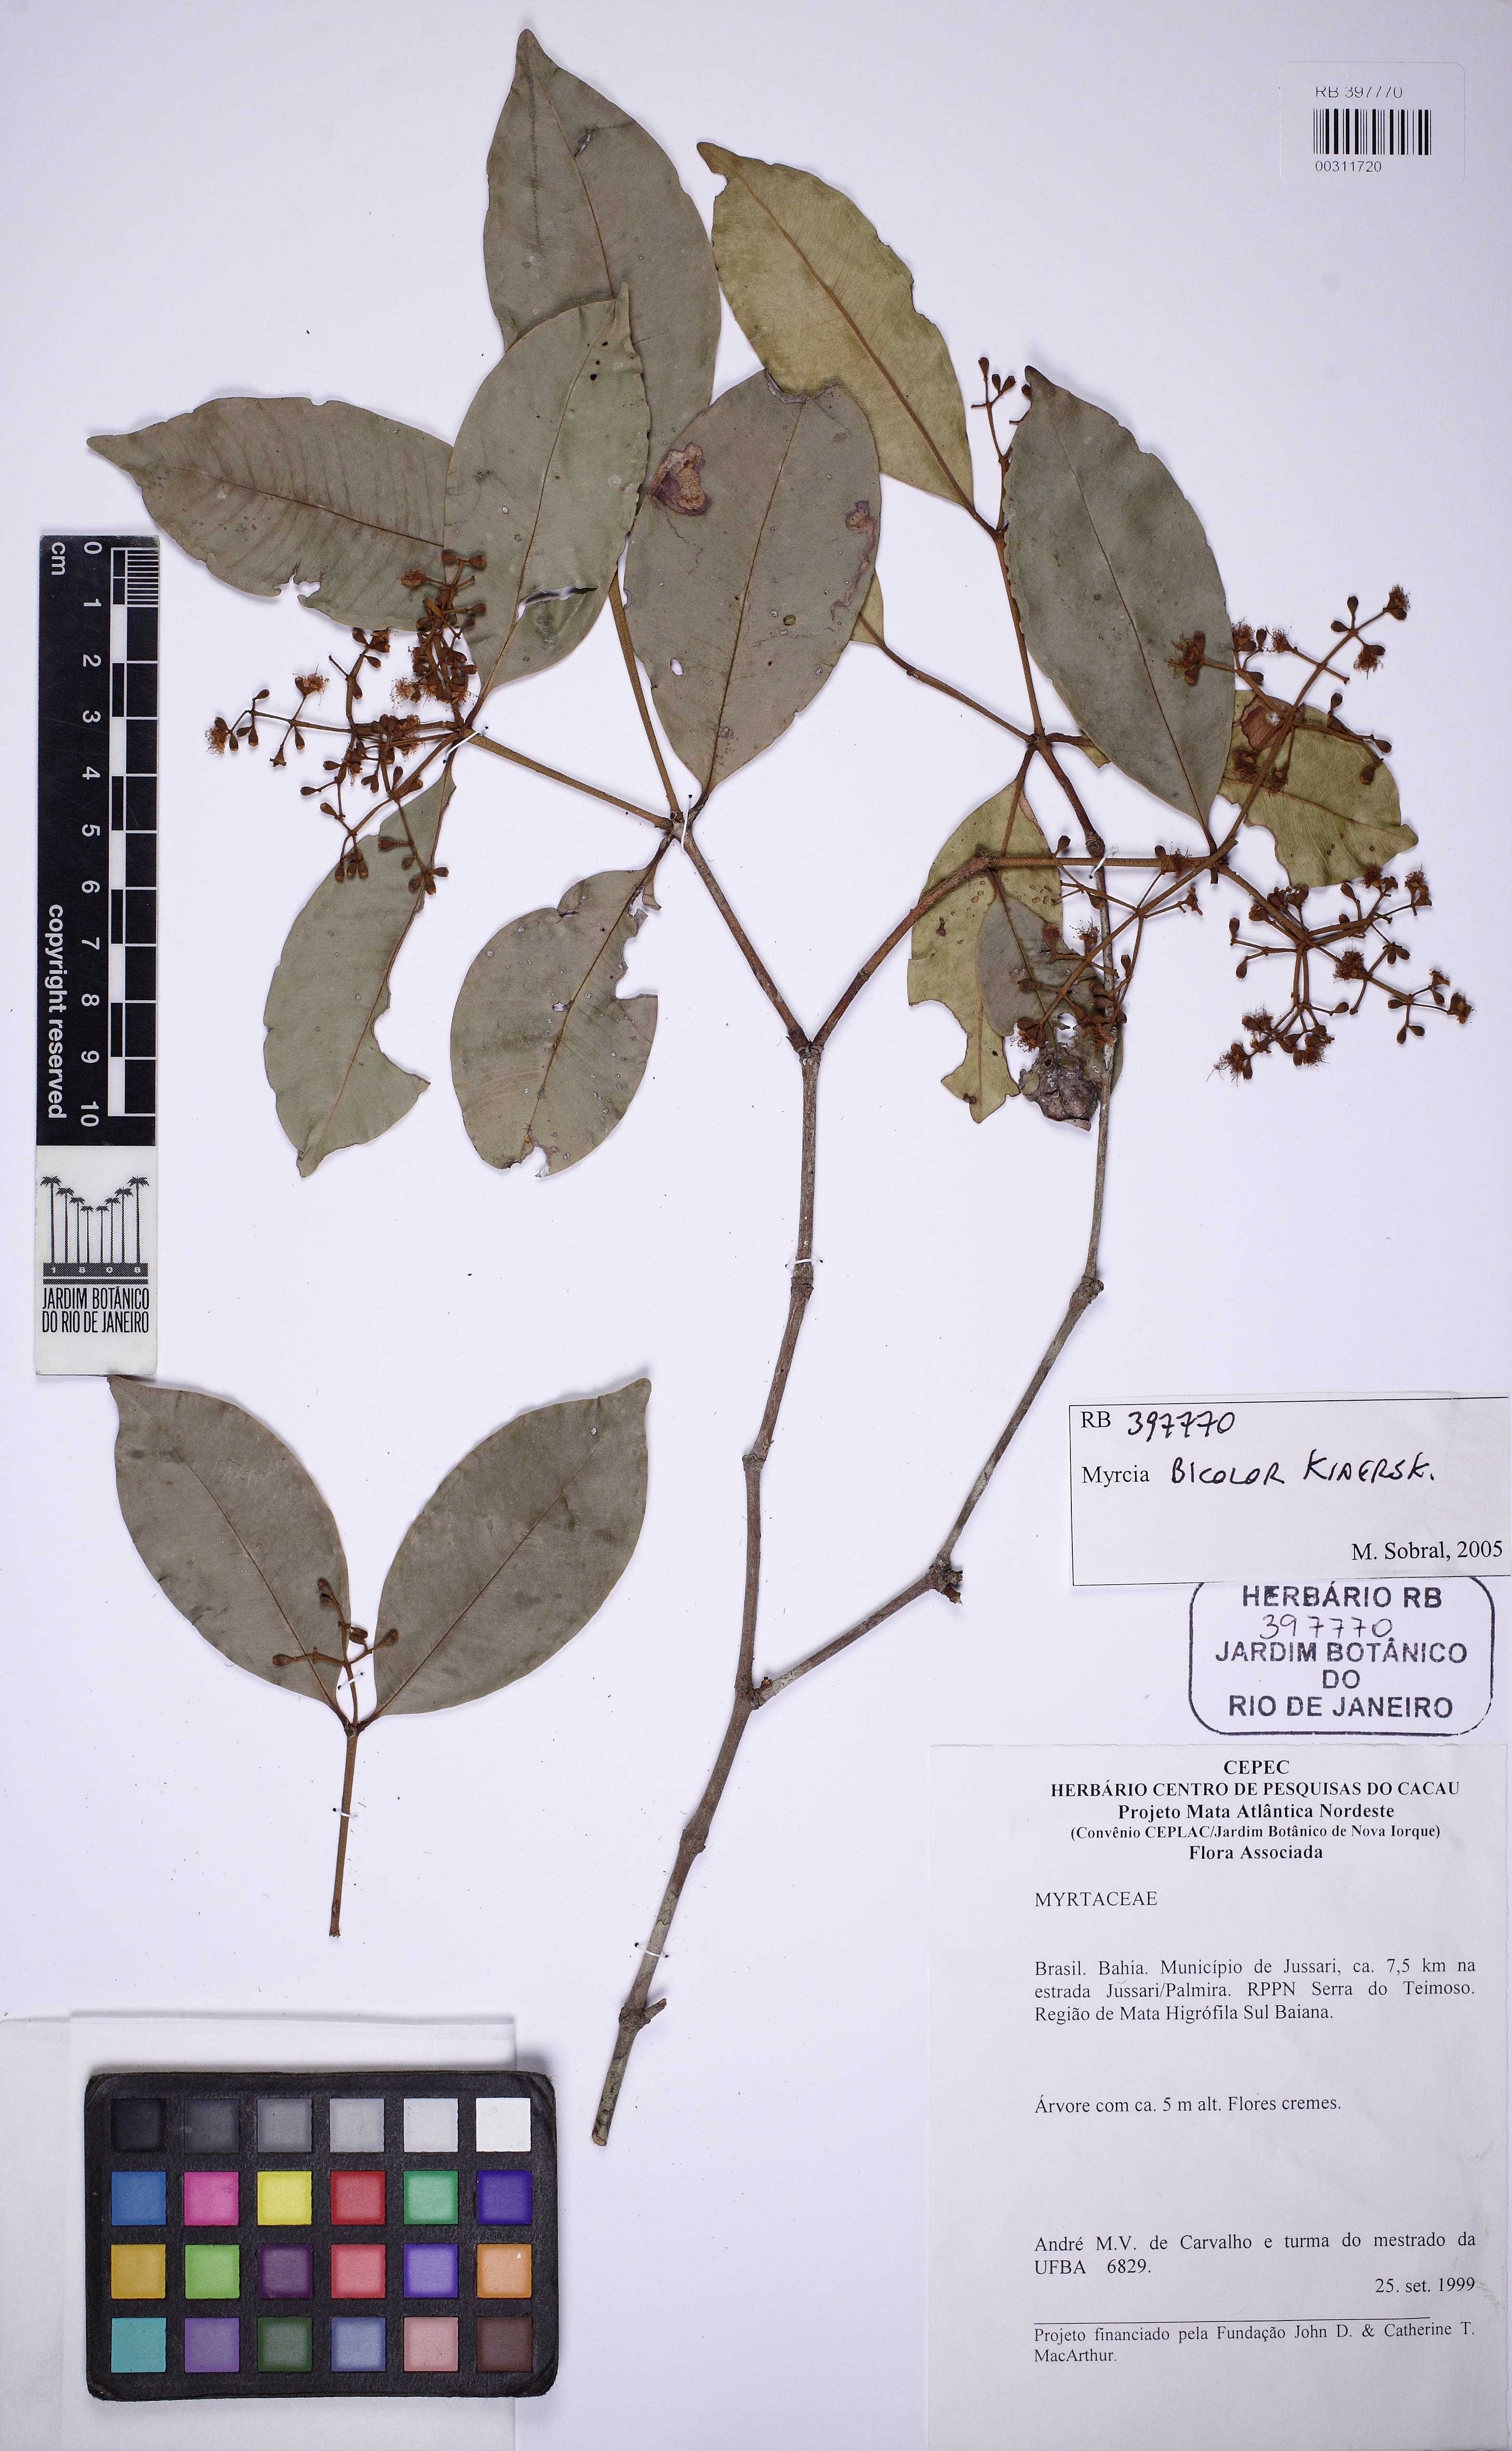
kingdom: Plantae
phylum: Tracheophyta
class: Magnoliopsida
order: Myrtales
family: Myrtaceae
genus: Myrcia
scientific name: Myrcia bicolor
